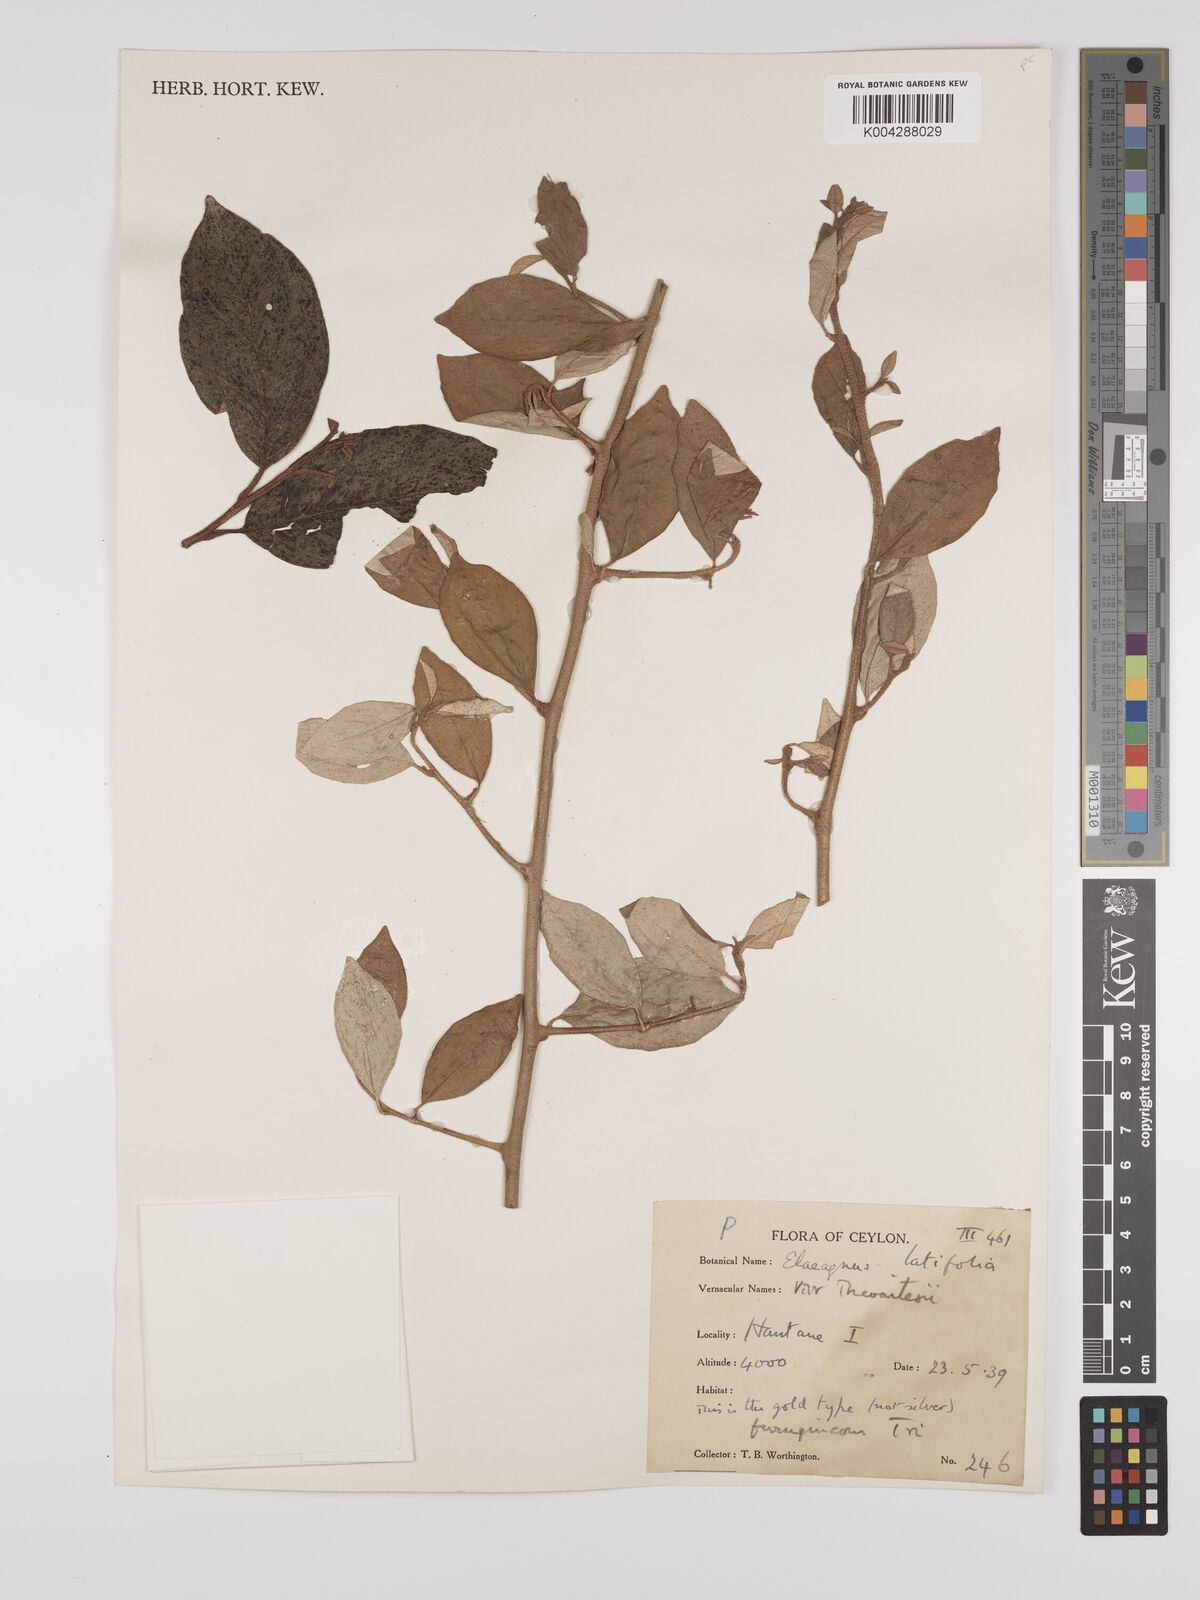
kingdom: Plantae
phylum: Tracheophyta
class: Magnoliopsida
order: Rosales
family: Elaeagnaceae
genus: Elaeagnus
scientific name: Elaeagnus latifolia
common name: Oleaster
